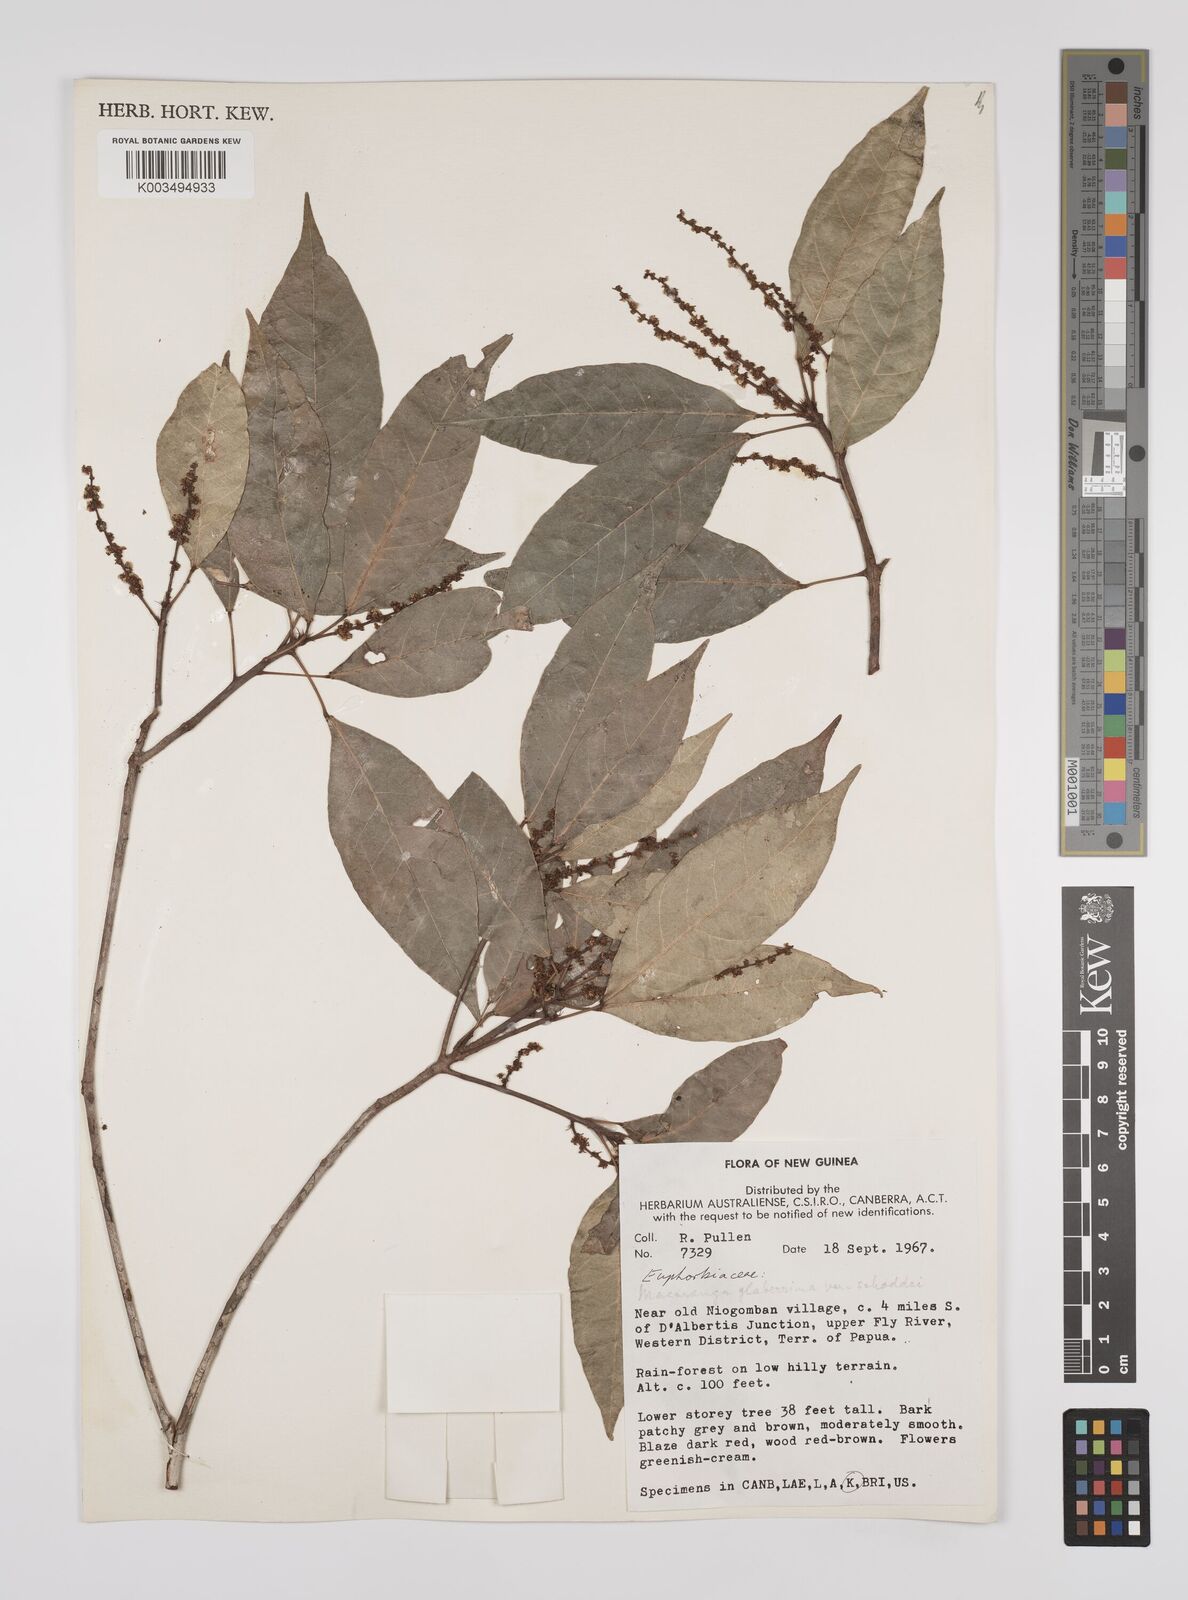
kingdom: Plantae
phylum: Tracheophyta
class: Magnoliopsida
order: Malpighiales
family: Euphorbiaceae
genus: Macaranga
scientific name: Macaranga glaberrima
